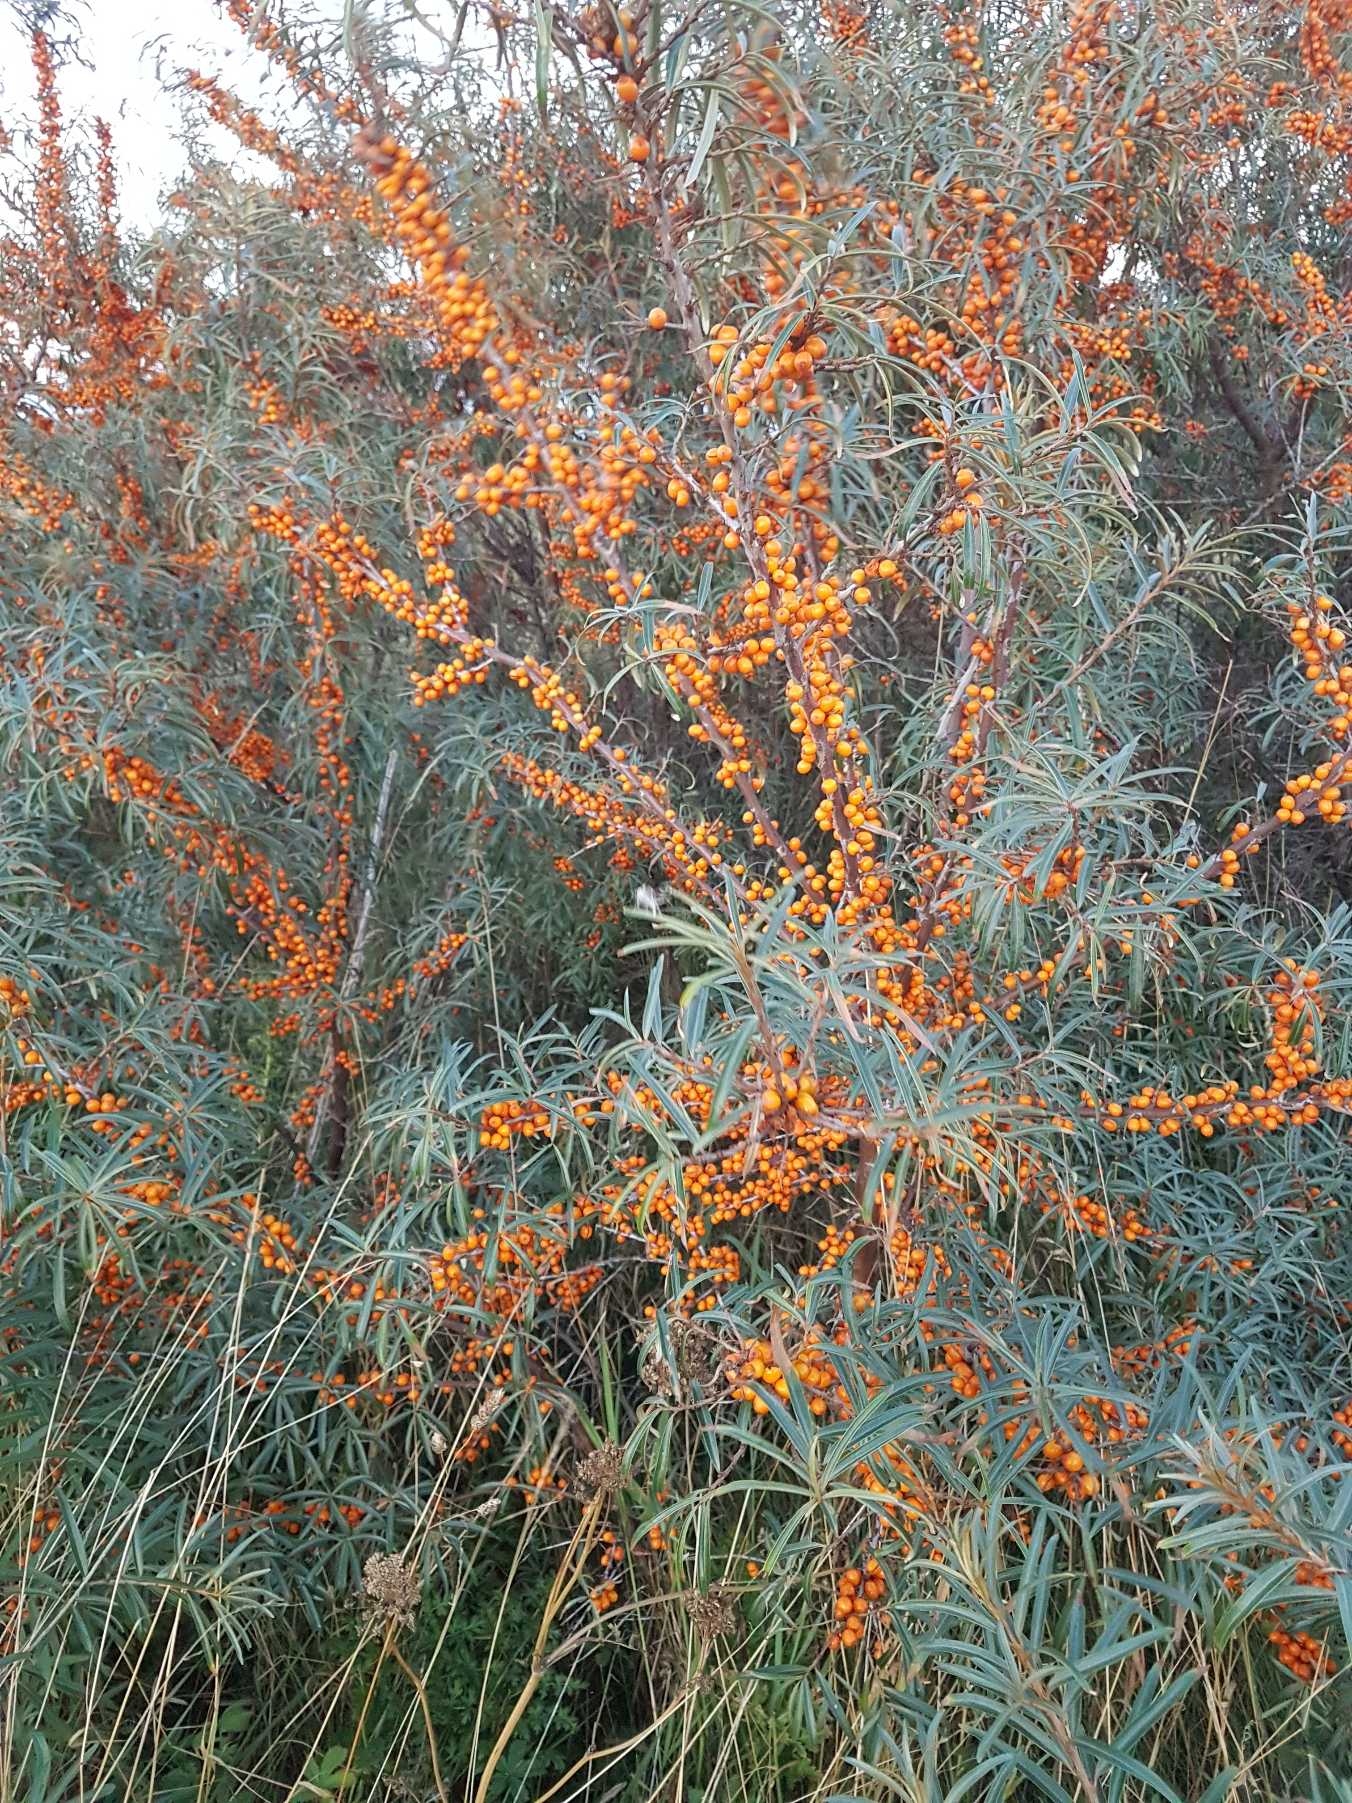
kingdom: Plantae
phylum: Tracheophyta
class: Magnoliopsida
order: Rosales
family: Elaeagnaceae
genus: Hippophae
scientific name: Hippophae rhamnoides
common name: Havtorn
